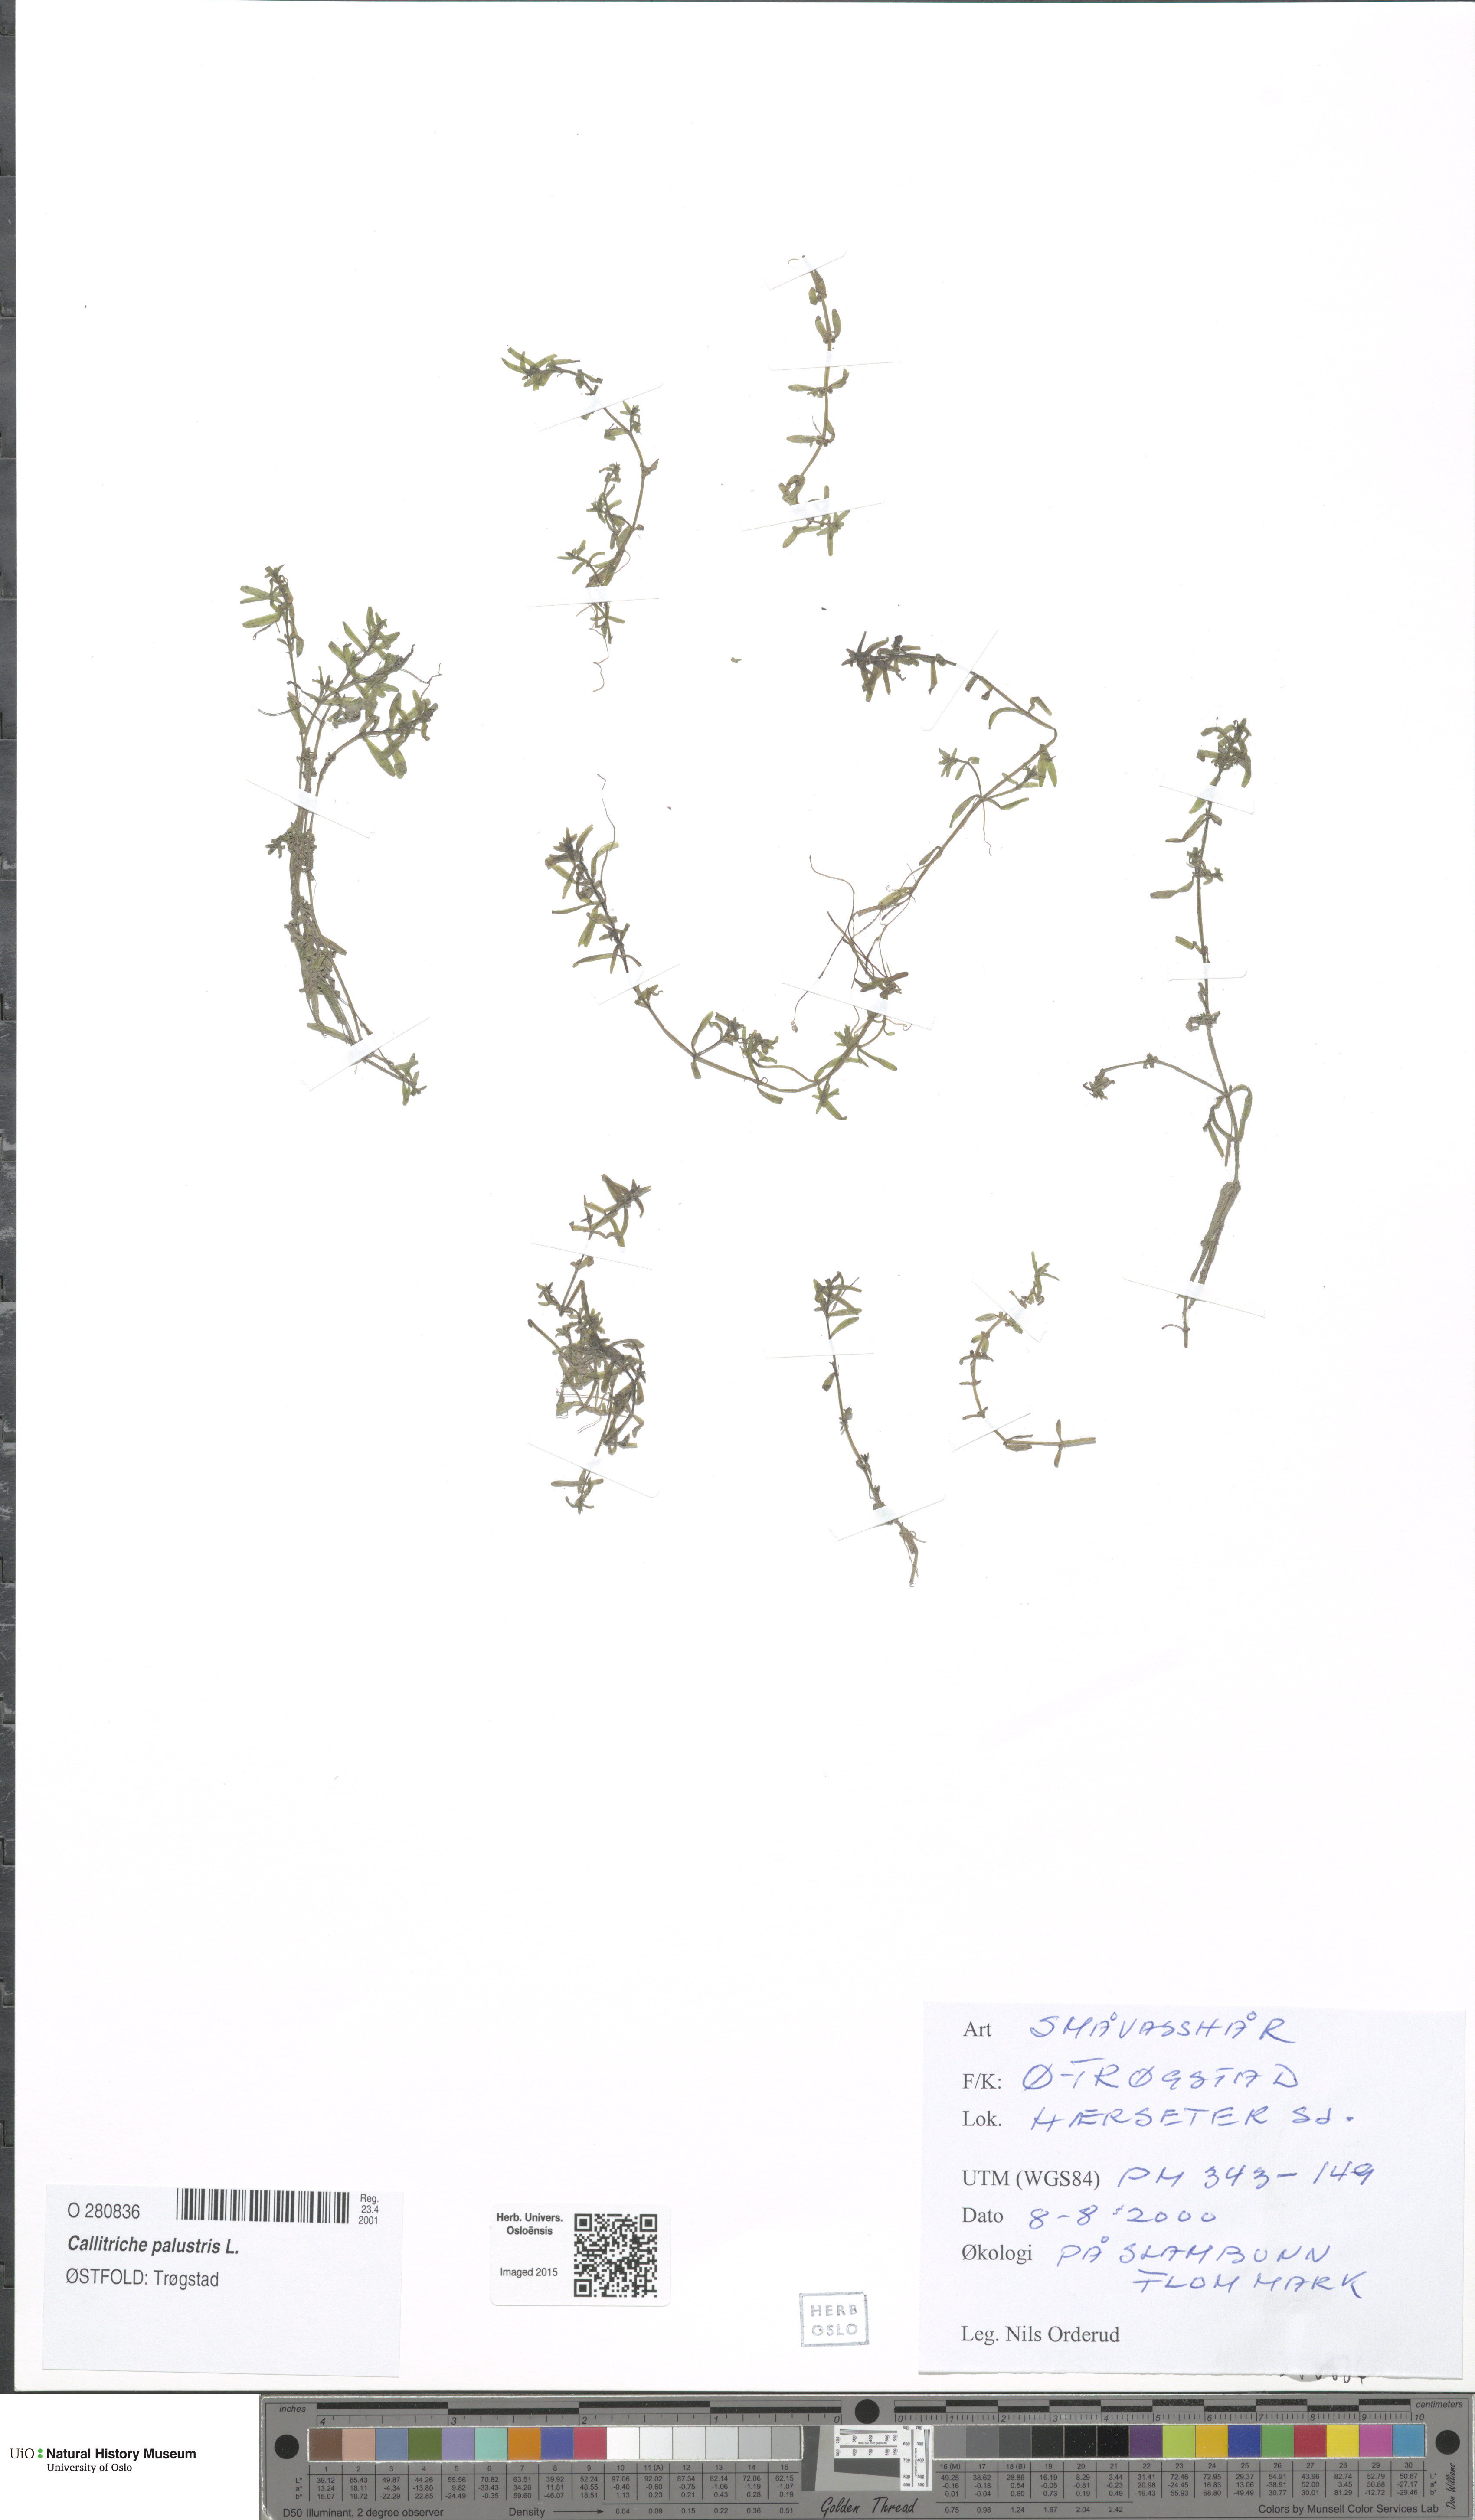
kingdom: Plantae
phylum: Tracheophyta
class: Magnoliopsida
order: Lamiales
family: Plantaginaceae
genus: Callitriche
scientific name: Callitriche palustris
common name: Spring water-starwort
